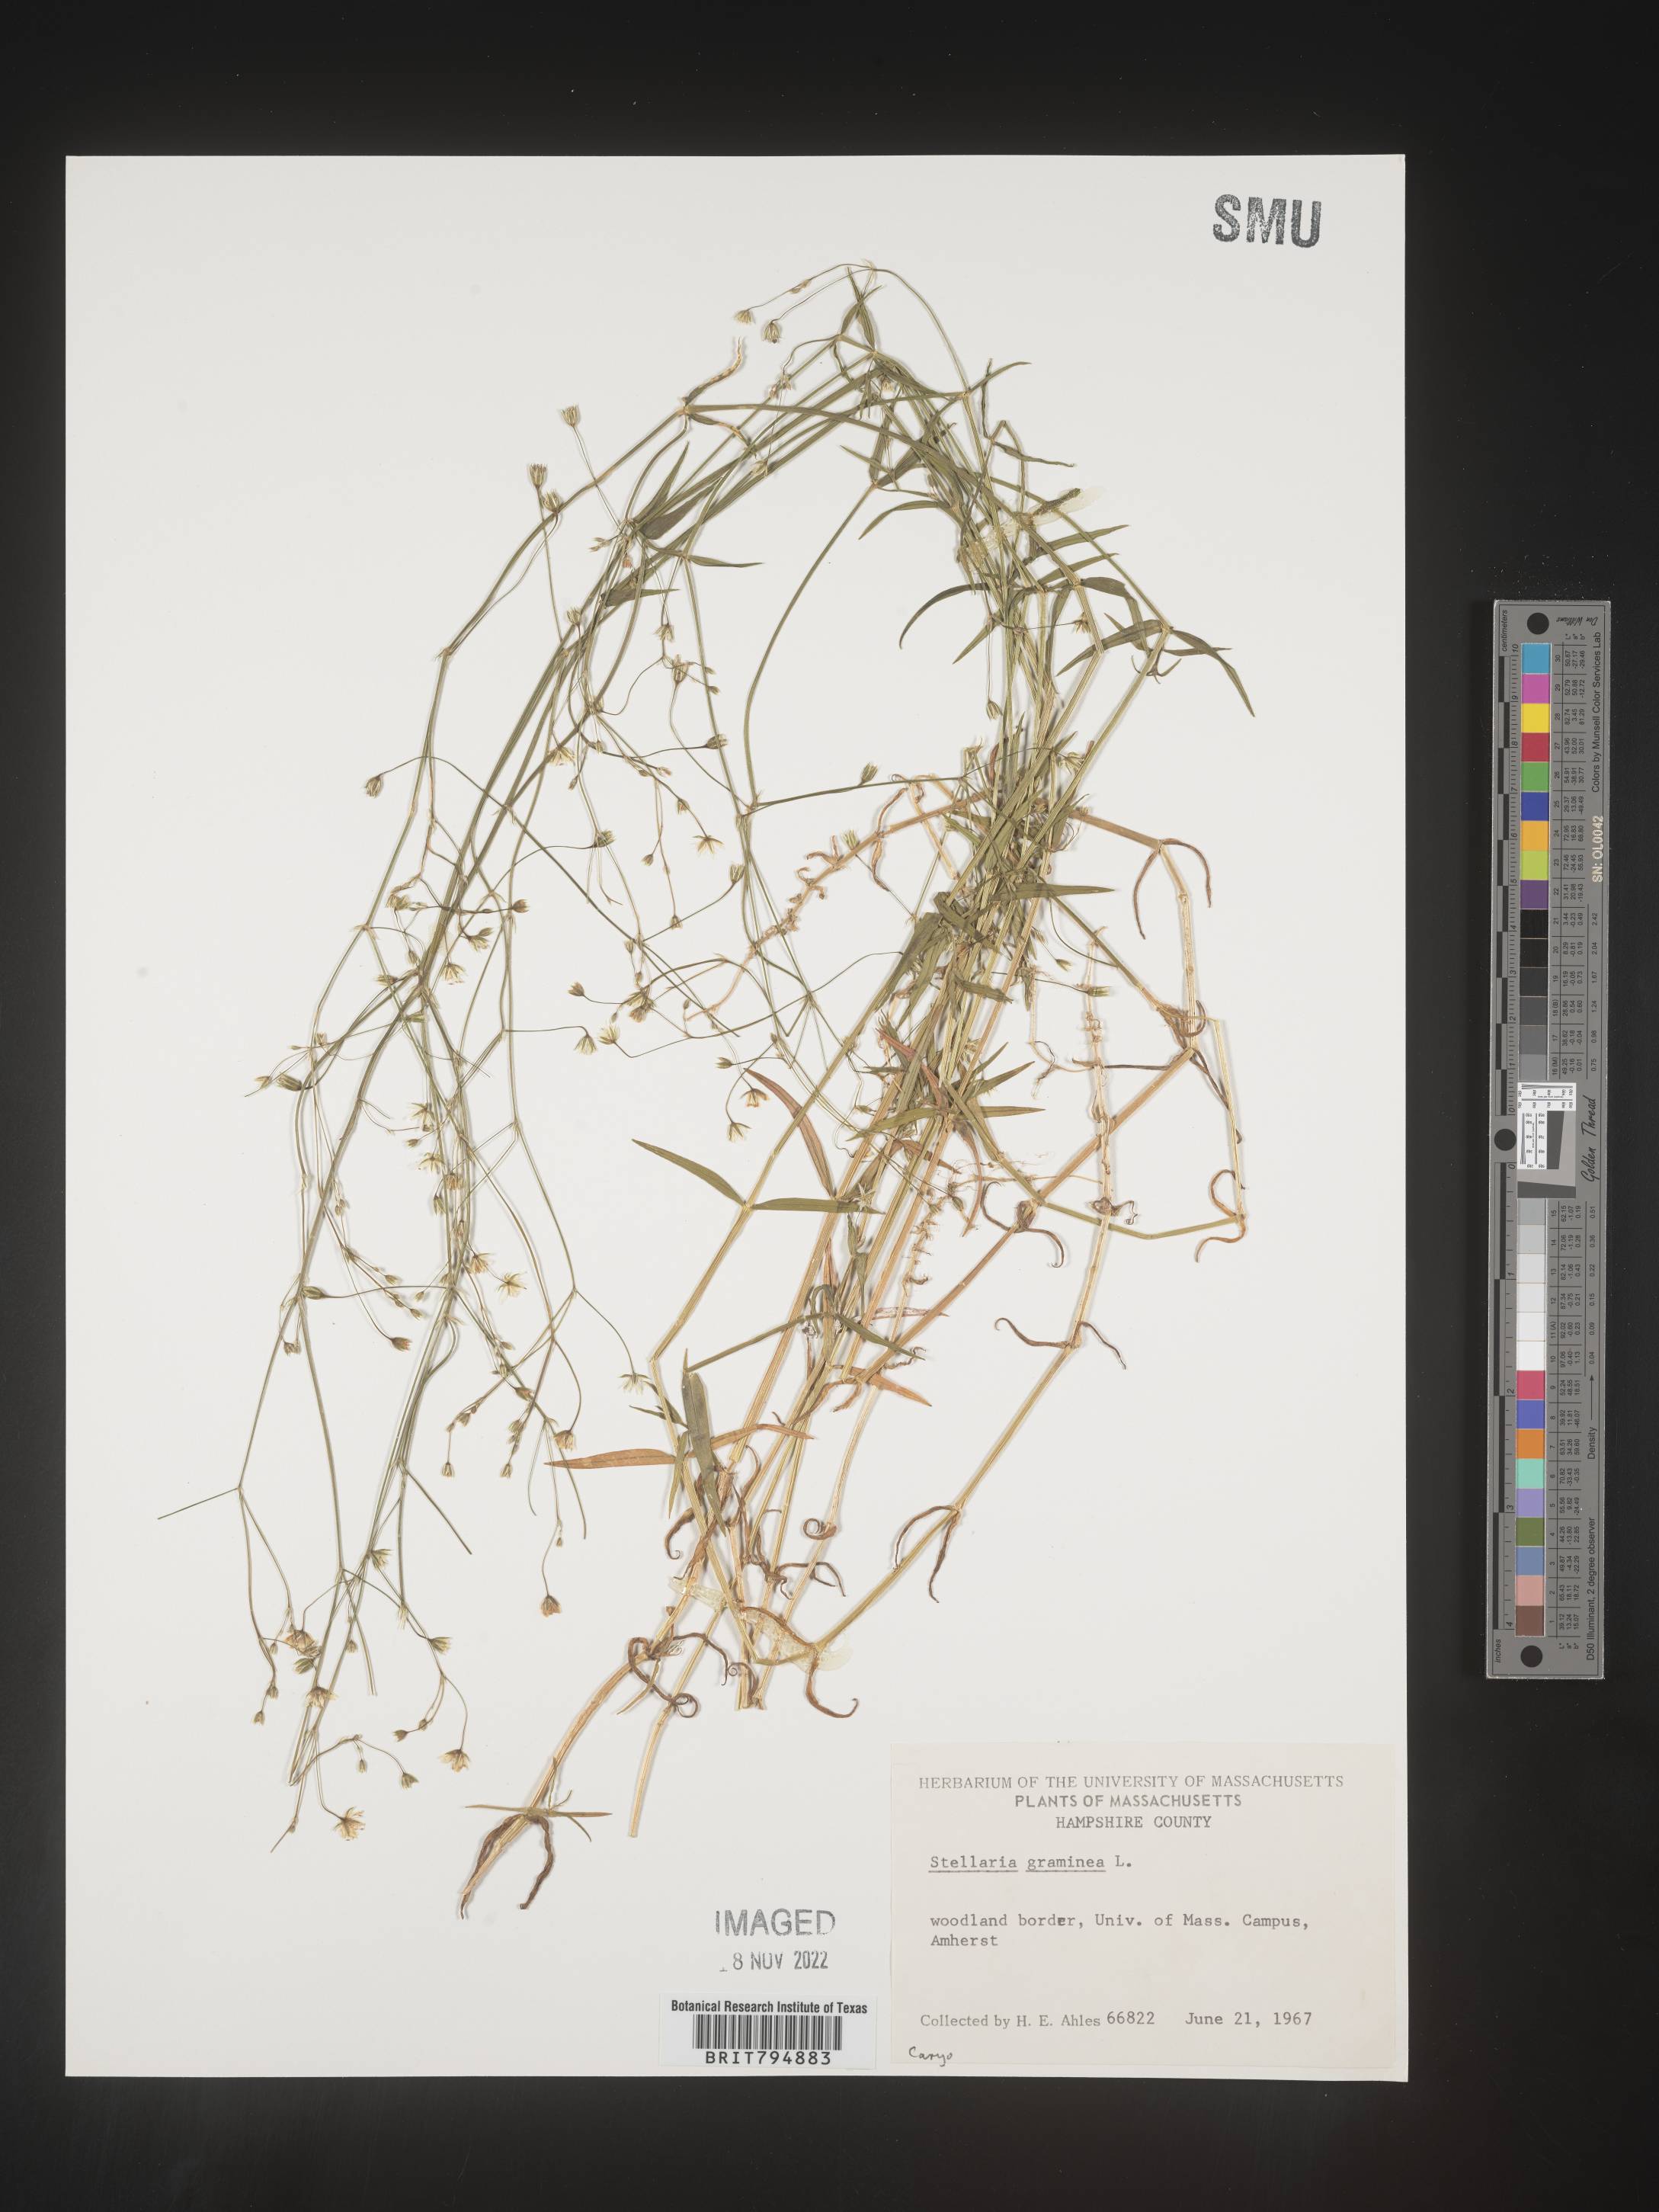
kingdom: Plantae
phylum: Tracheophyta
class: Magnoliopsida
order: Caryophyllales
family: Caryophyllaceae
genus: Stellaria
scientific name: Stellaria graminea
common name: Grass-like starwort
